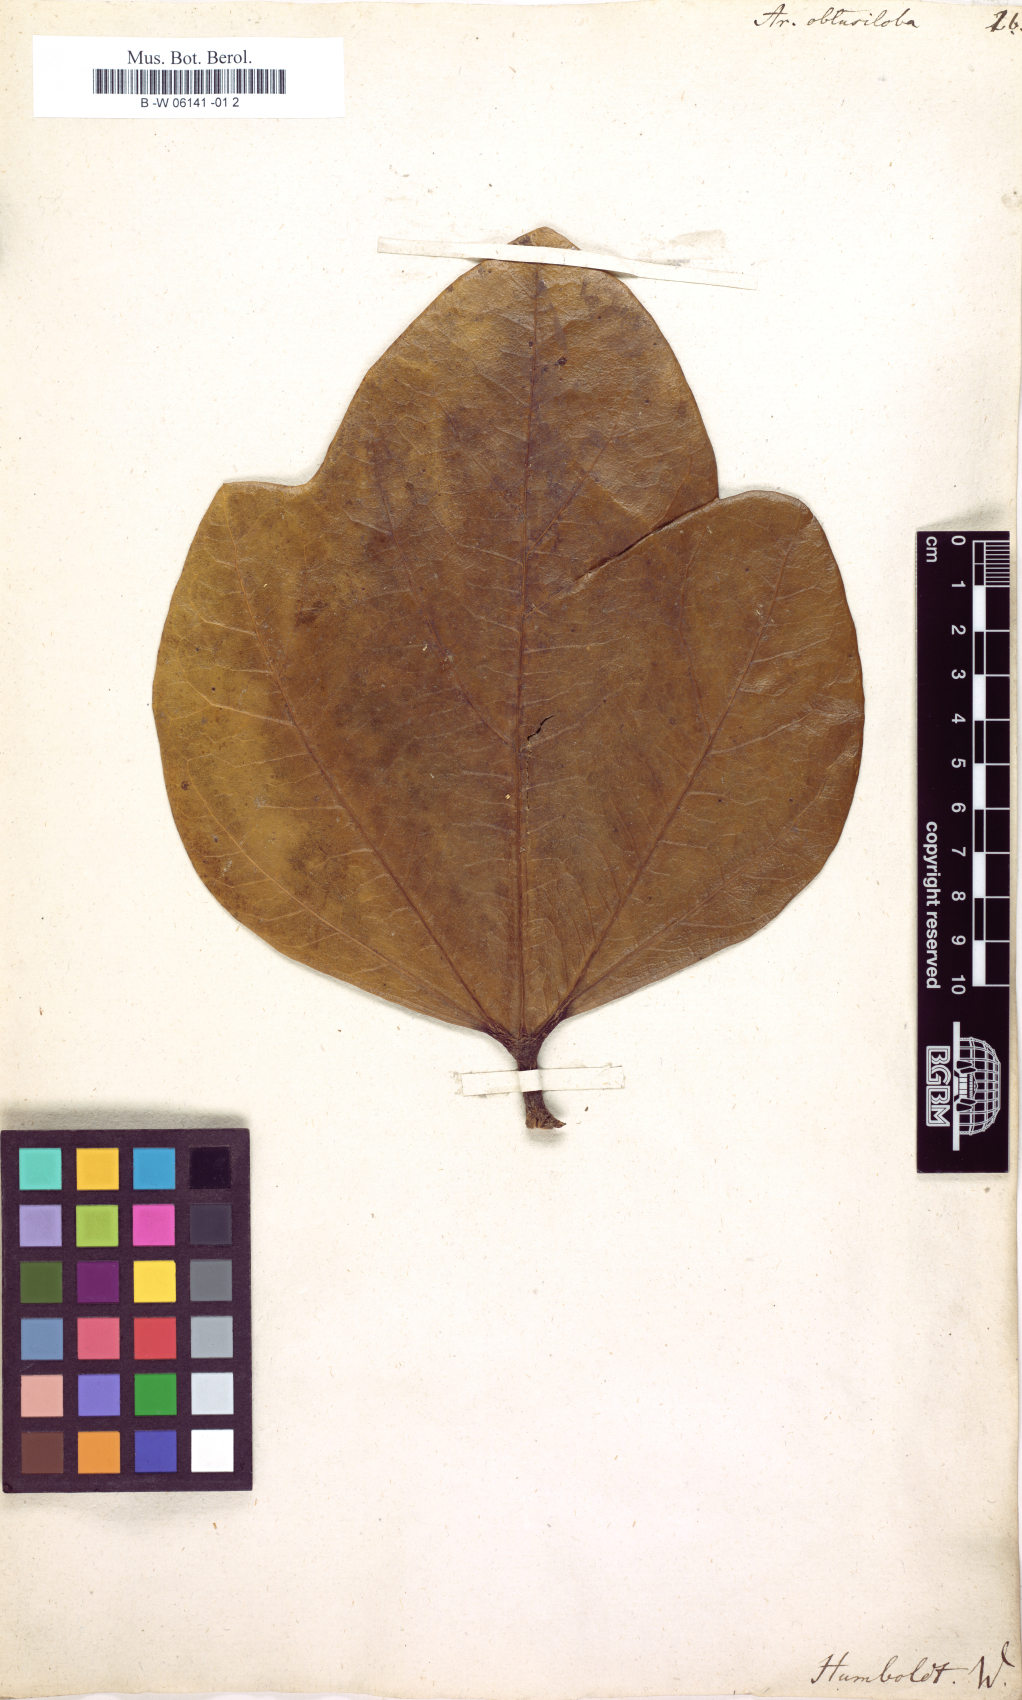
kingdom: Plantae
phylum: Tracheophyta
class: Magnoliopsida
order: Apiales
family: Araliaceae
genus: Oreopanax
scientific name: Oreopanax obtusilobus
